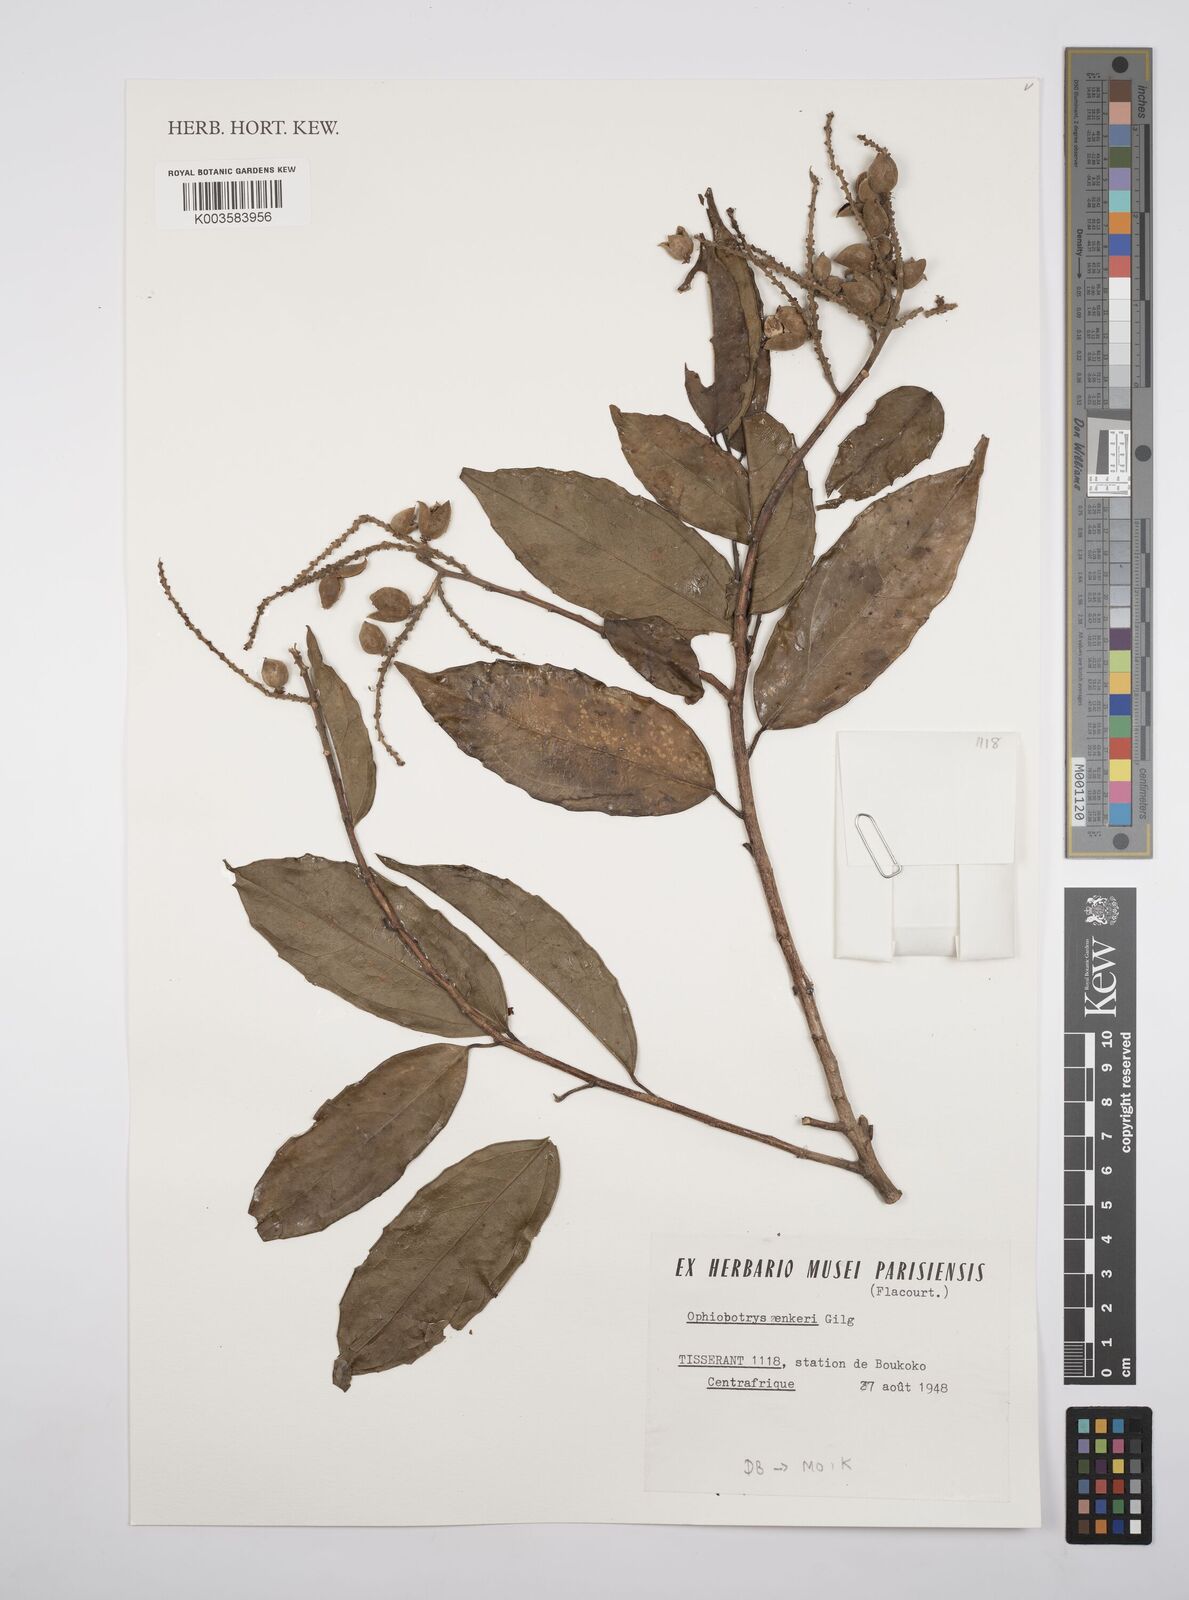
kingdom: Plantae
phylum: Tracheophyta
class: Magnoliopsida
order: Malpighiales
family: Salicaceae
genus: Ophiobotrys
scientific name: Ophiobotrys zenkeri
